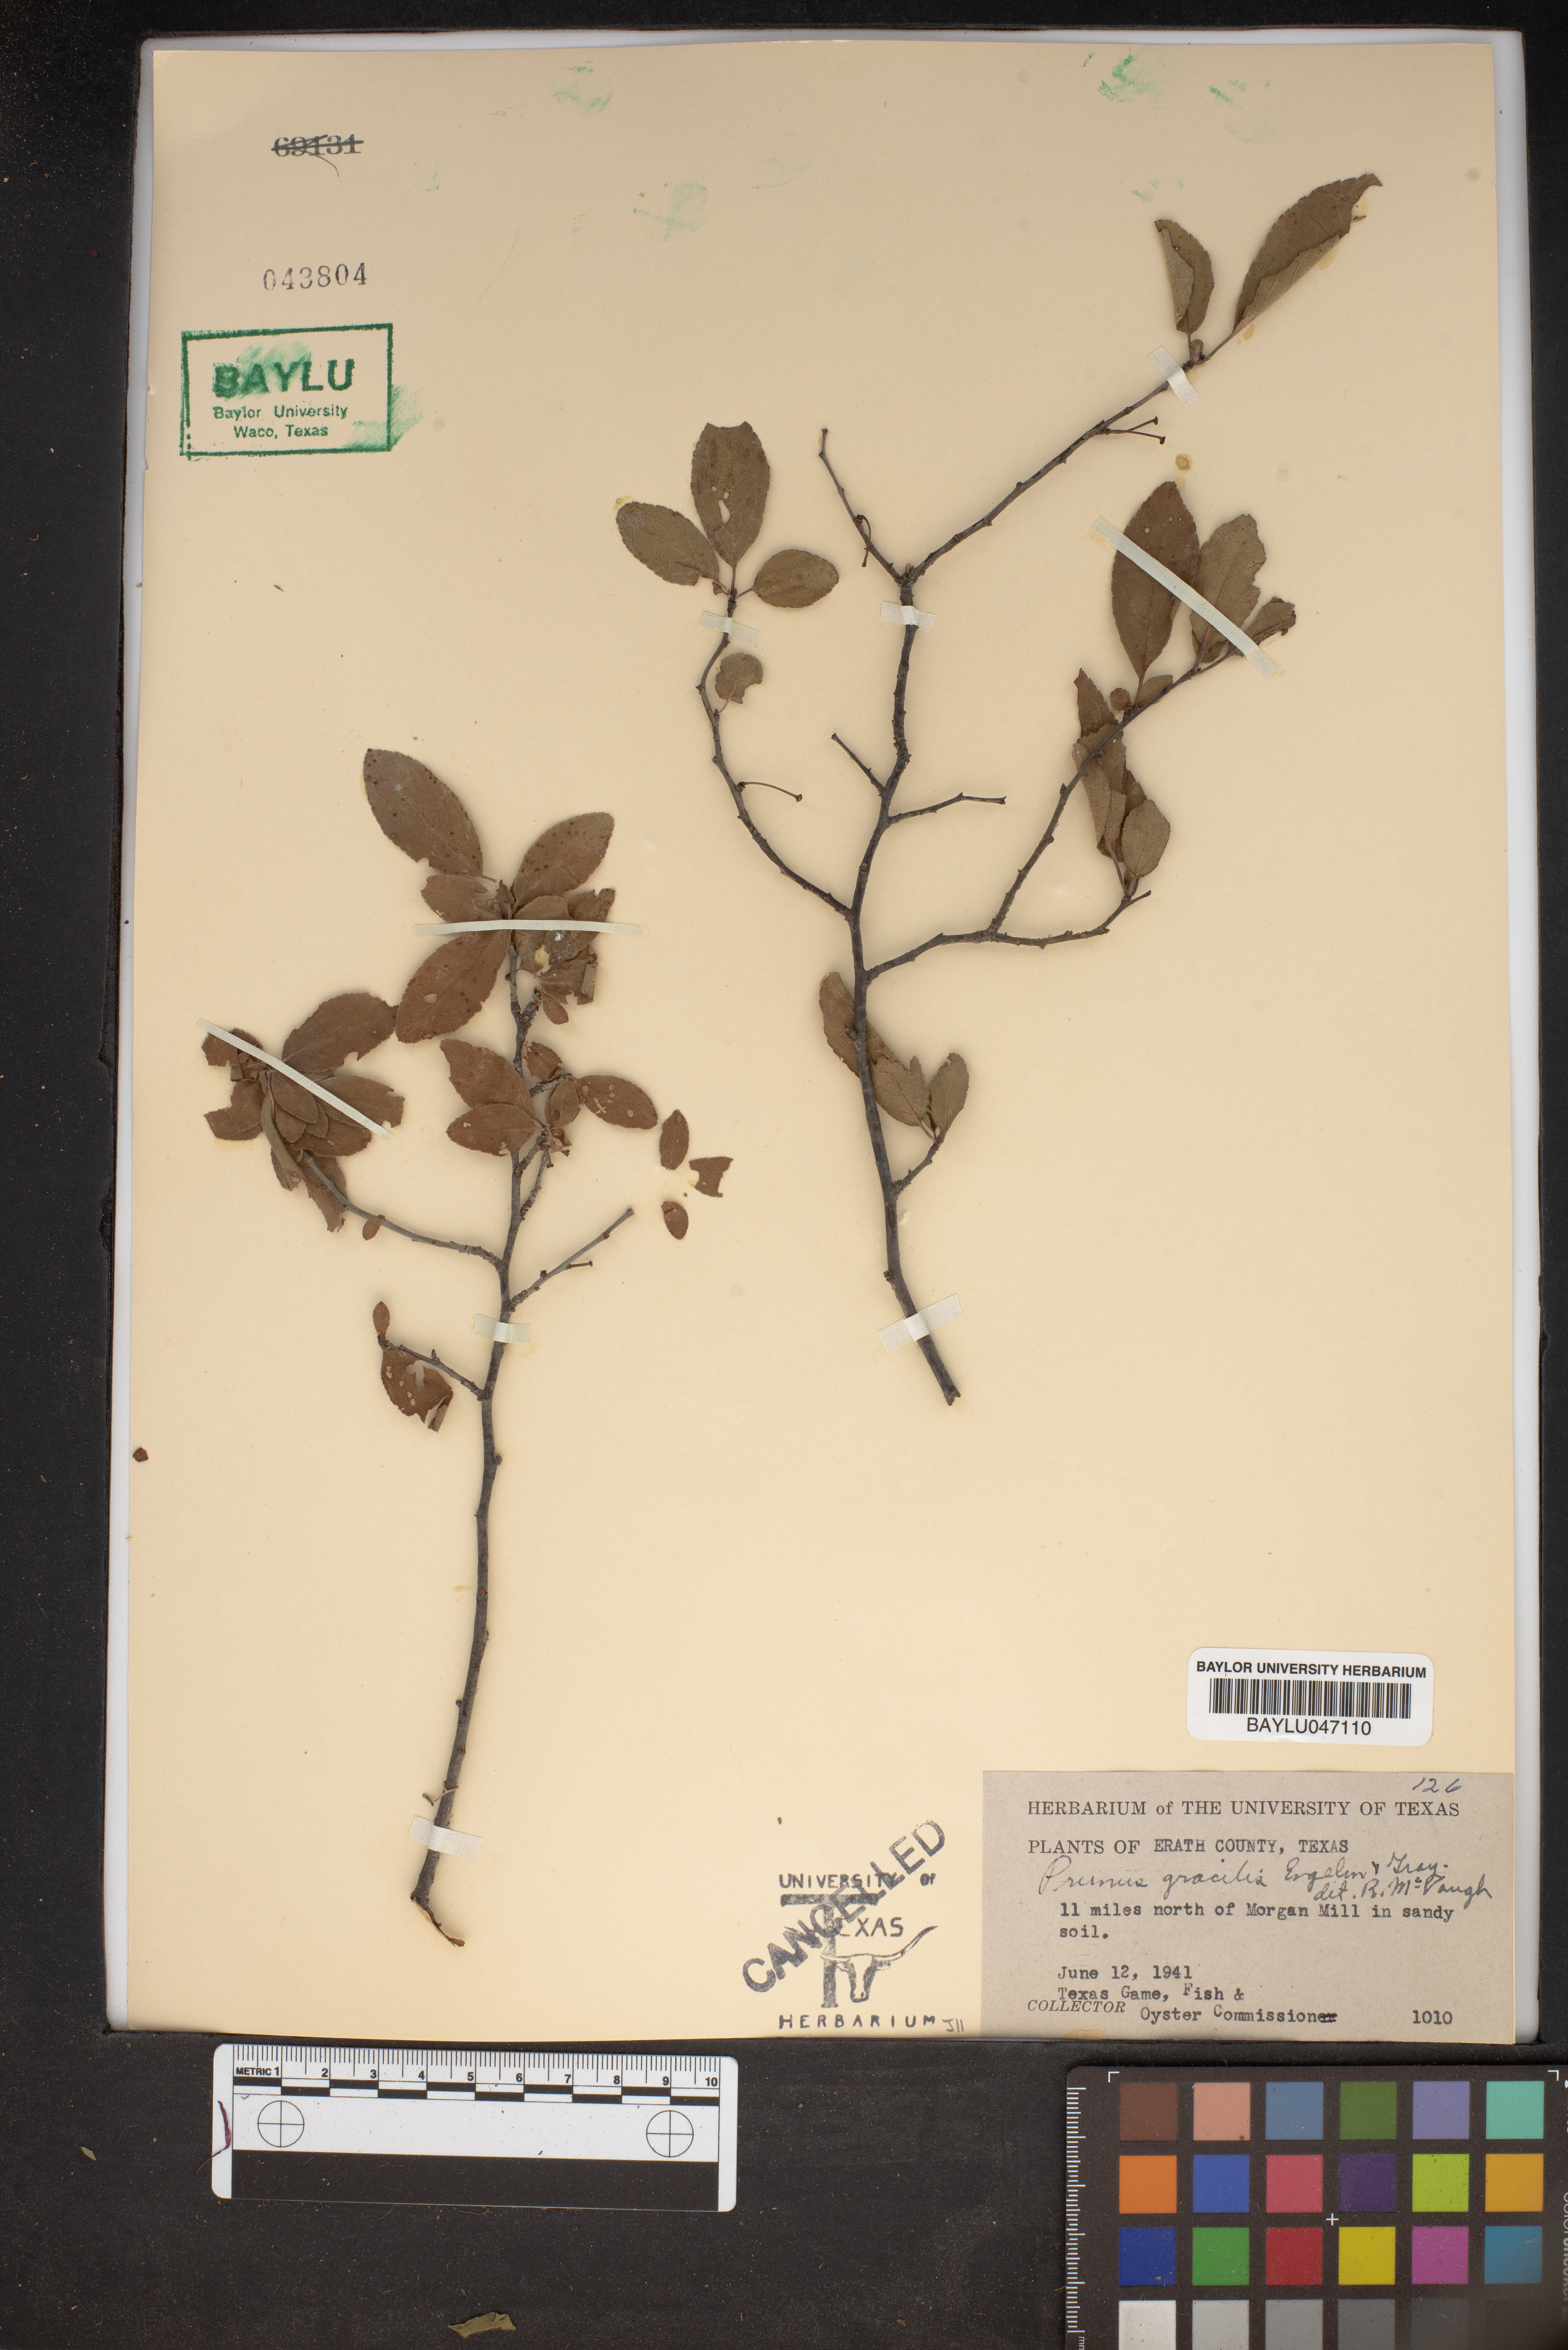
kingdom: Plantae
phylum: Tracheophyta
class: Magnoliopsida
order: Rosales
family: Rosaceae
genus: Prunus
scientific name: Prunus gracilis
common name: Oklahoma plum
